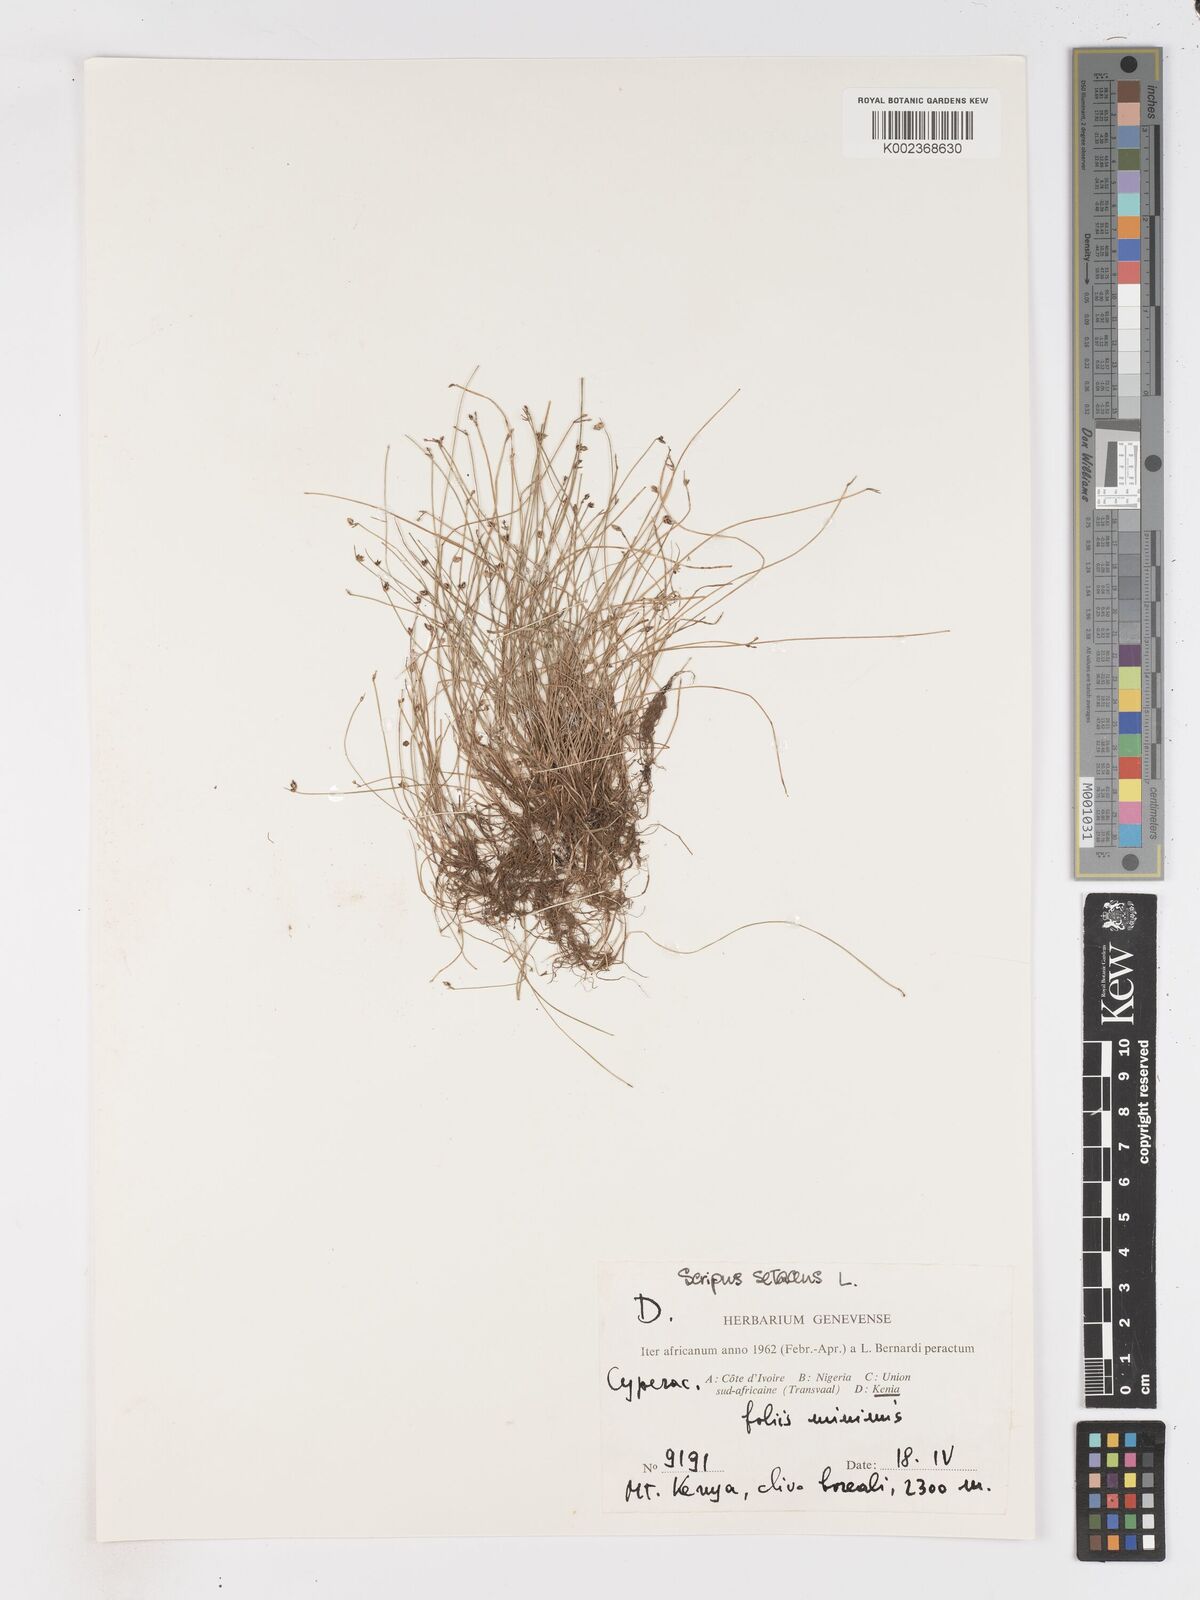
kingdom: Plantae
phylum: Tracheophyta
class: Liliopsida
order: Poales
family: Cyperaceae
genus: Isolepis
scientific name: Isolepis setacea
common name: Bristle club-rush
